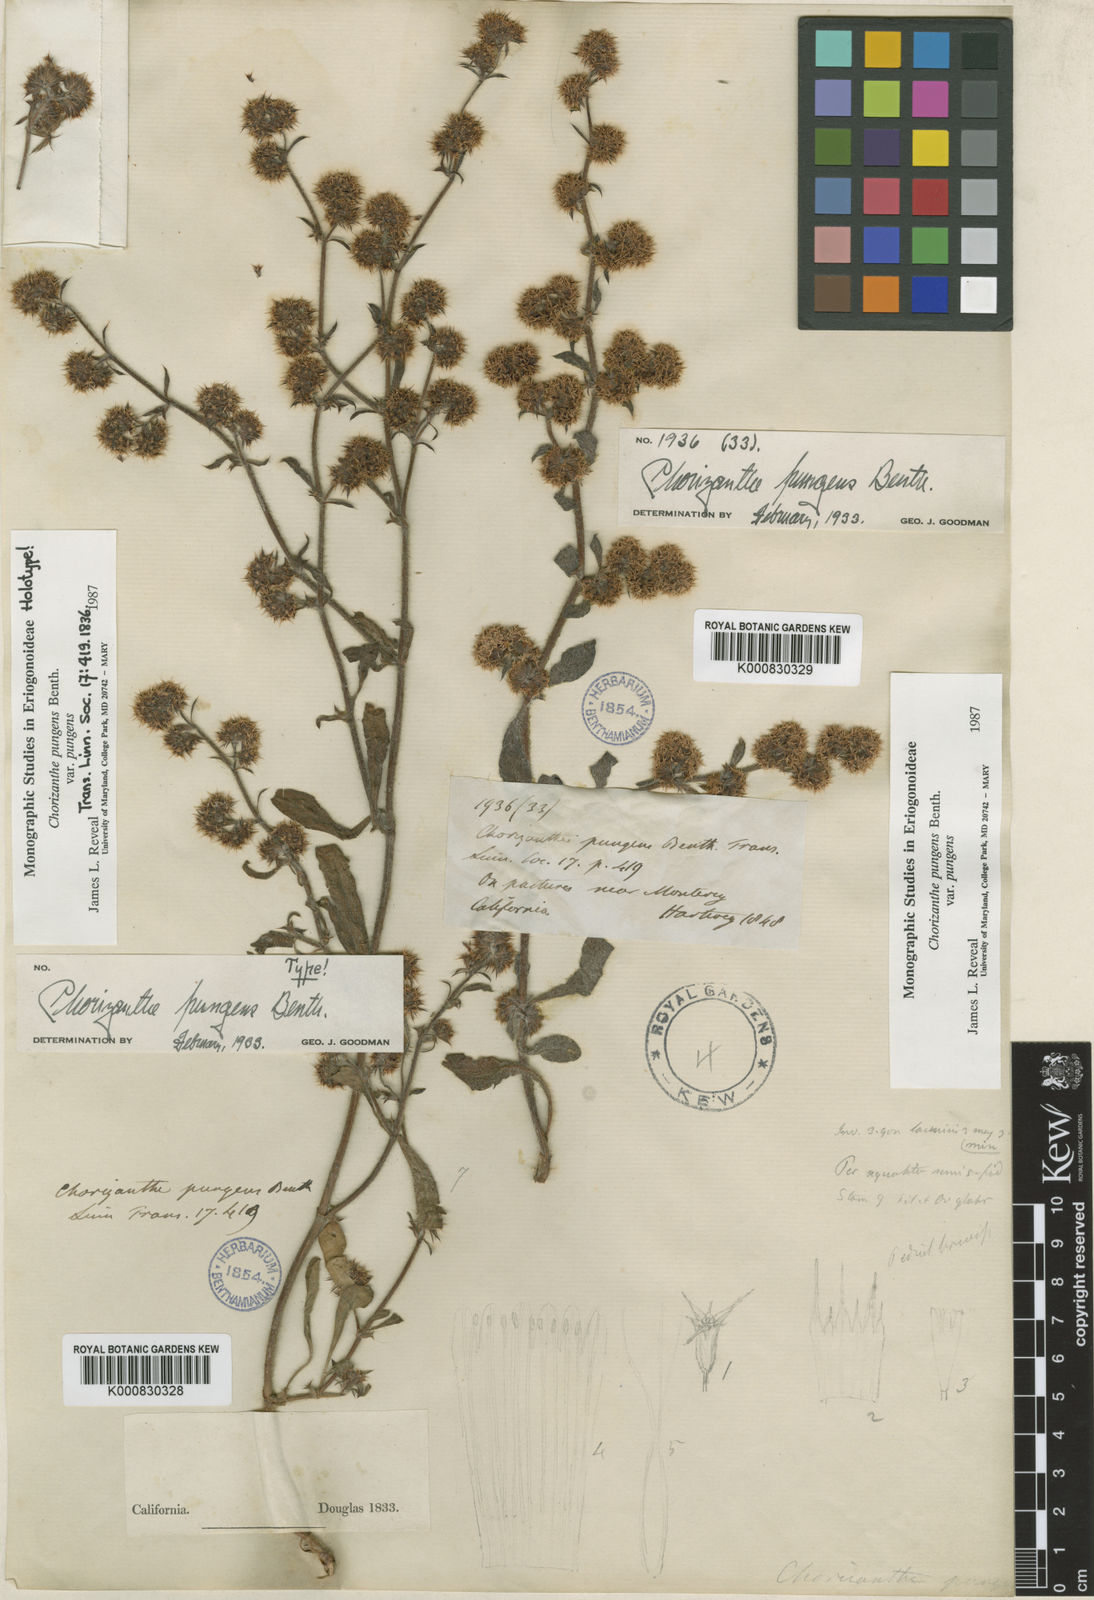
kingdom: Plantae
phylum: Tracheophyta
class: Magnoliopsida
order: Caryophyllales
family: Polygonaceae
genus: Chorizanthe
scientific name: Chorizanthe pungens
